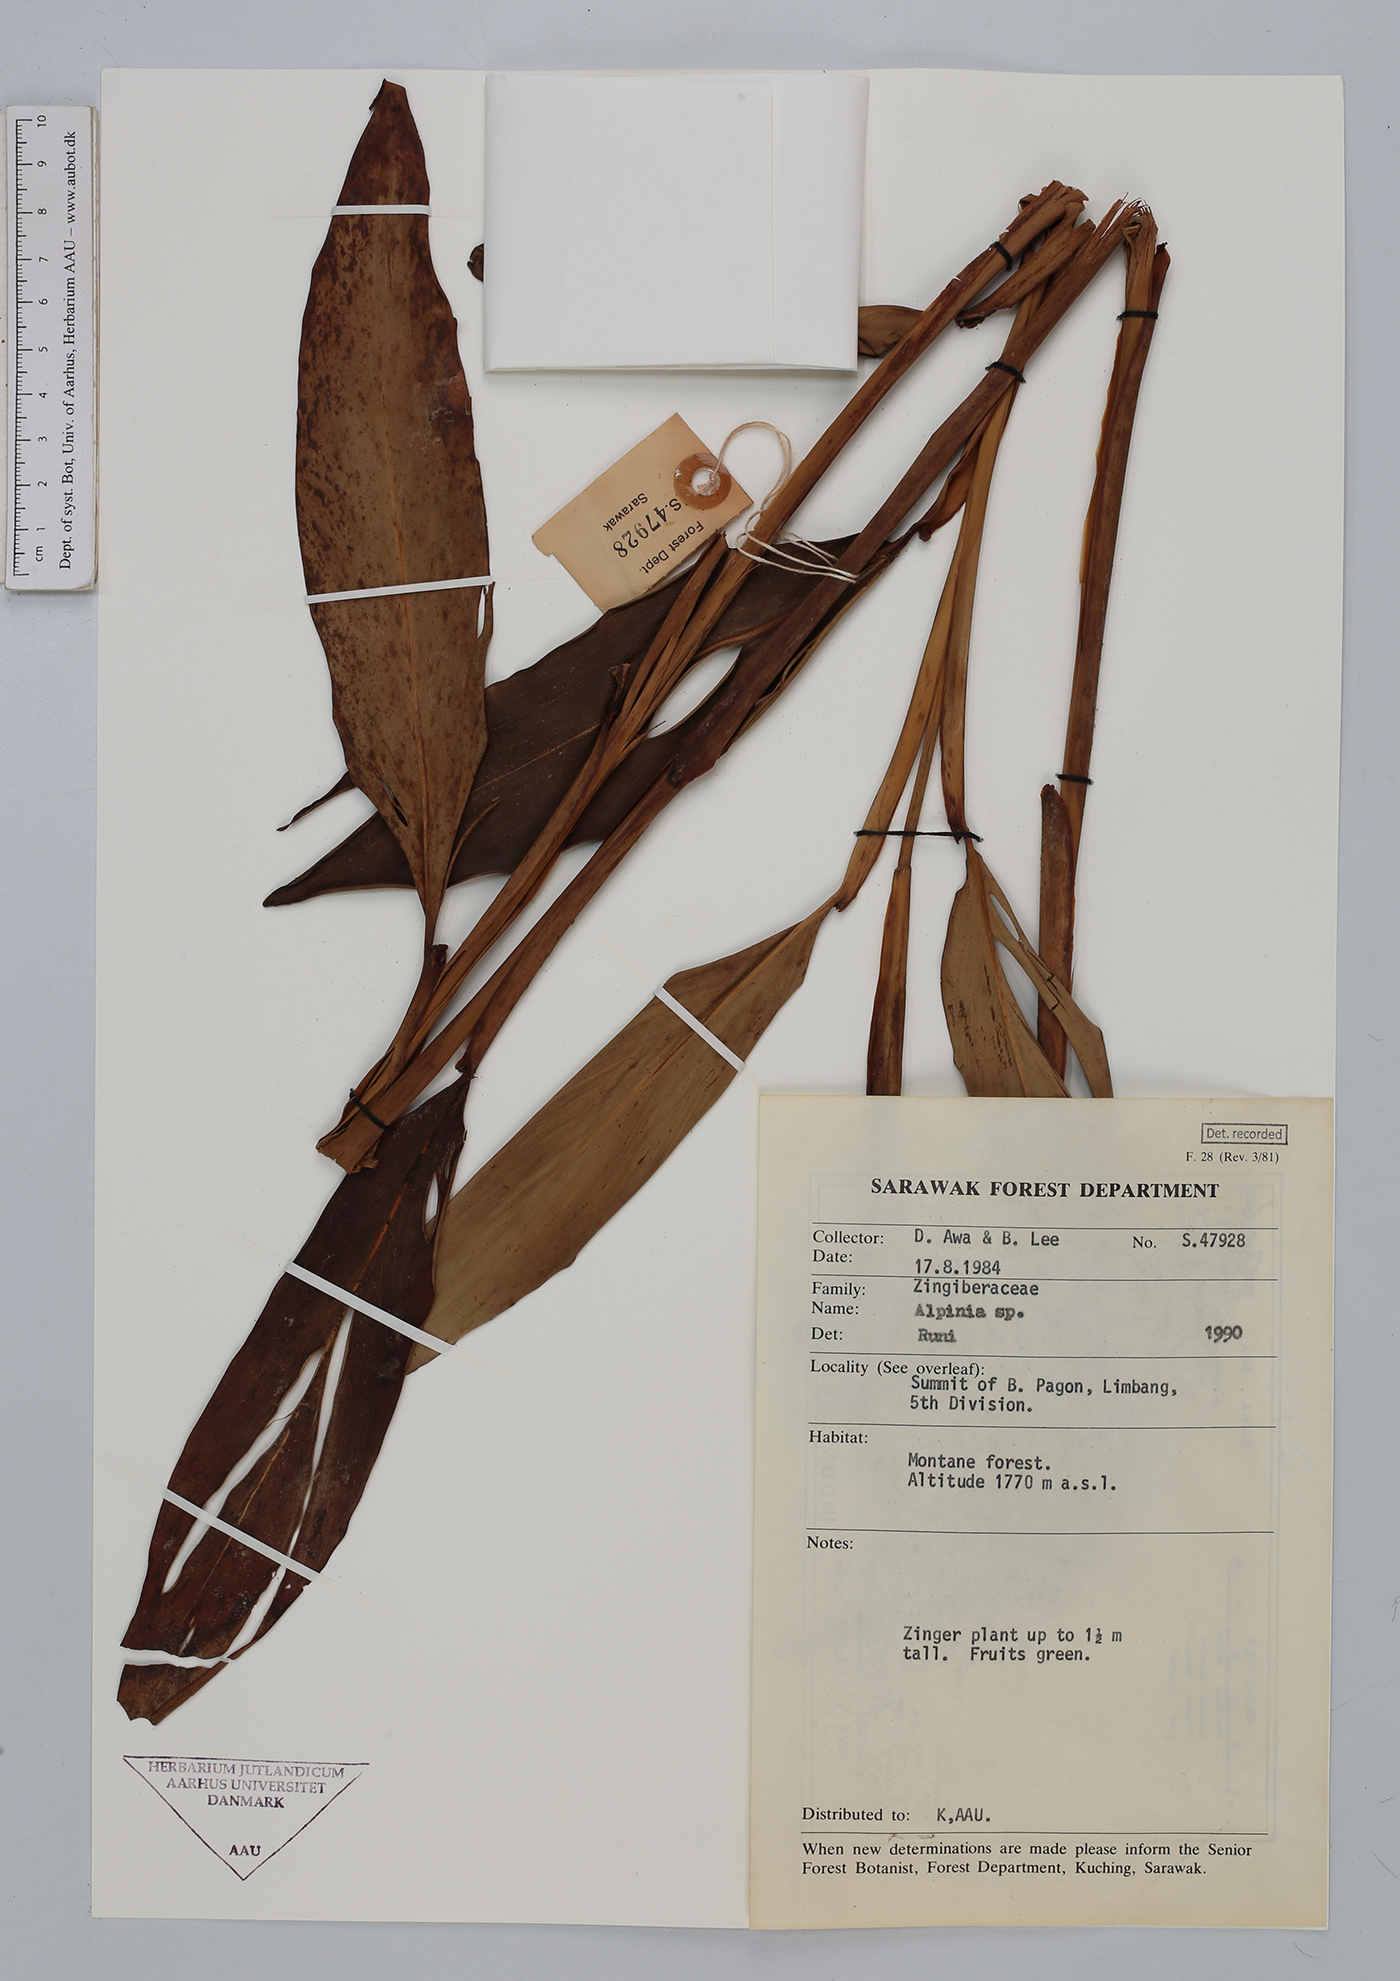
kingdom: Plantae
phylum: Tracheophyta
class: Liliopsida
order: Zingiberales
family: Zingiberaceae
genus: Alpinia
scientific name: Alpinia
